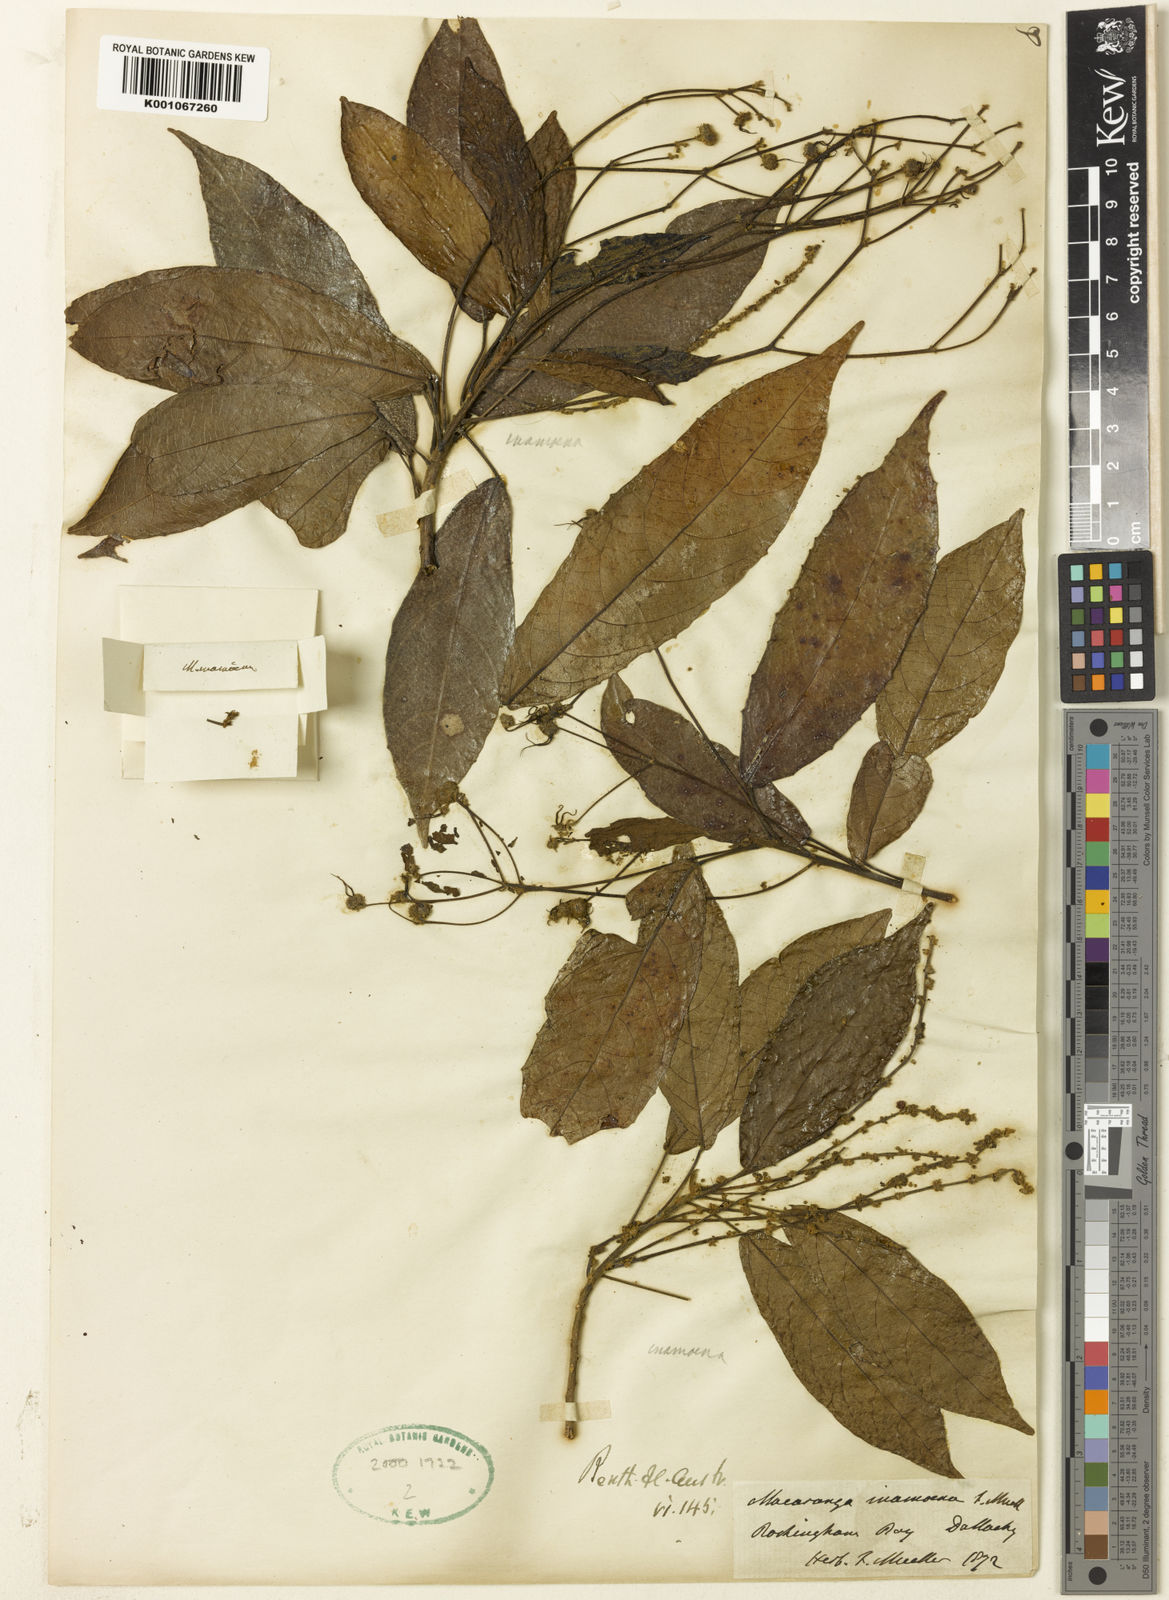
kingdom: Plantae
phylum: Tracheophyta
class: Magnoliopsida
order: Malpighiales
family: Euphorbiaceae
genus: Macaranga
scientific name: Macaranga inamoena
